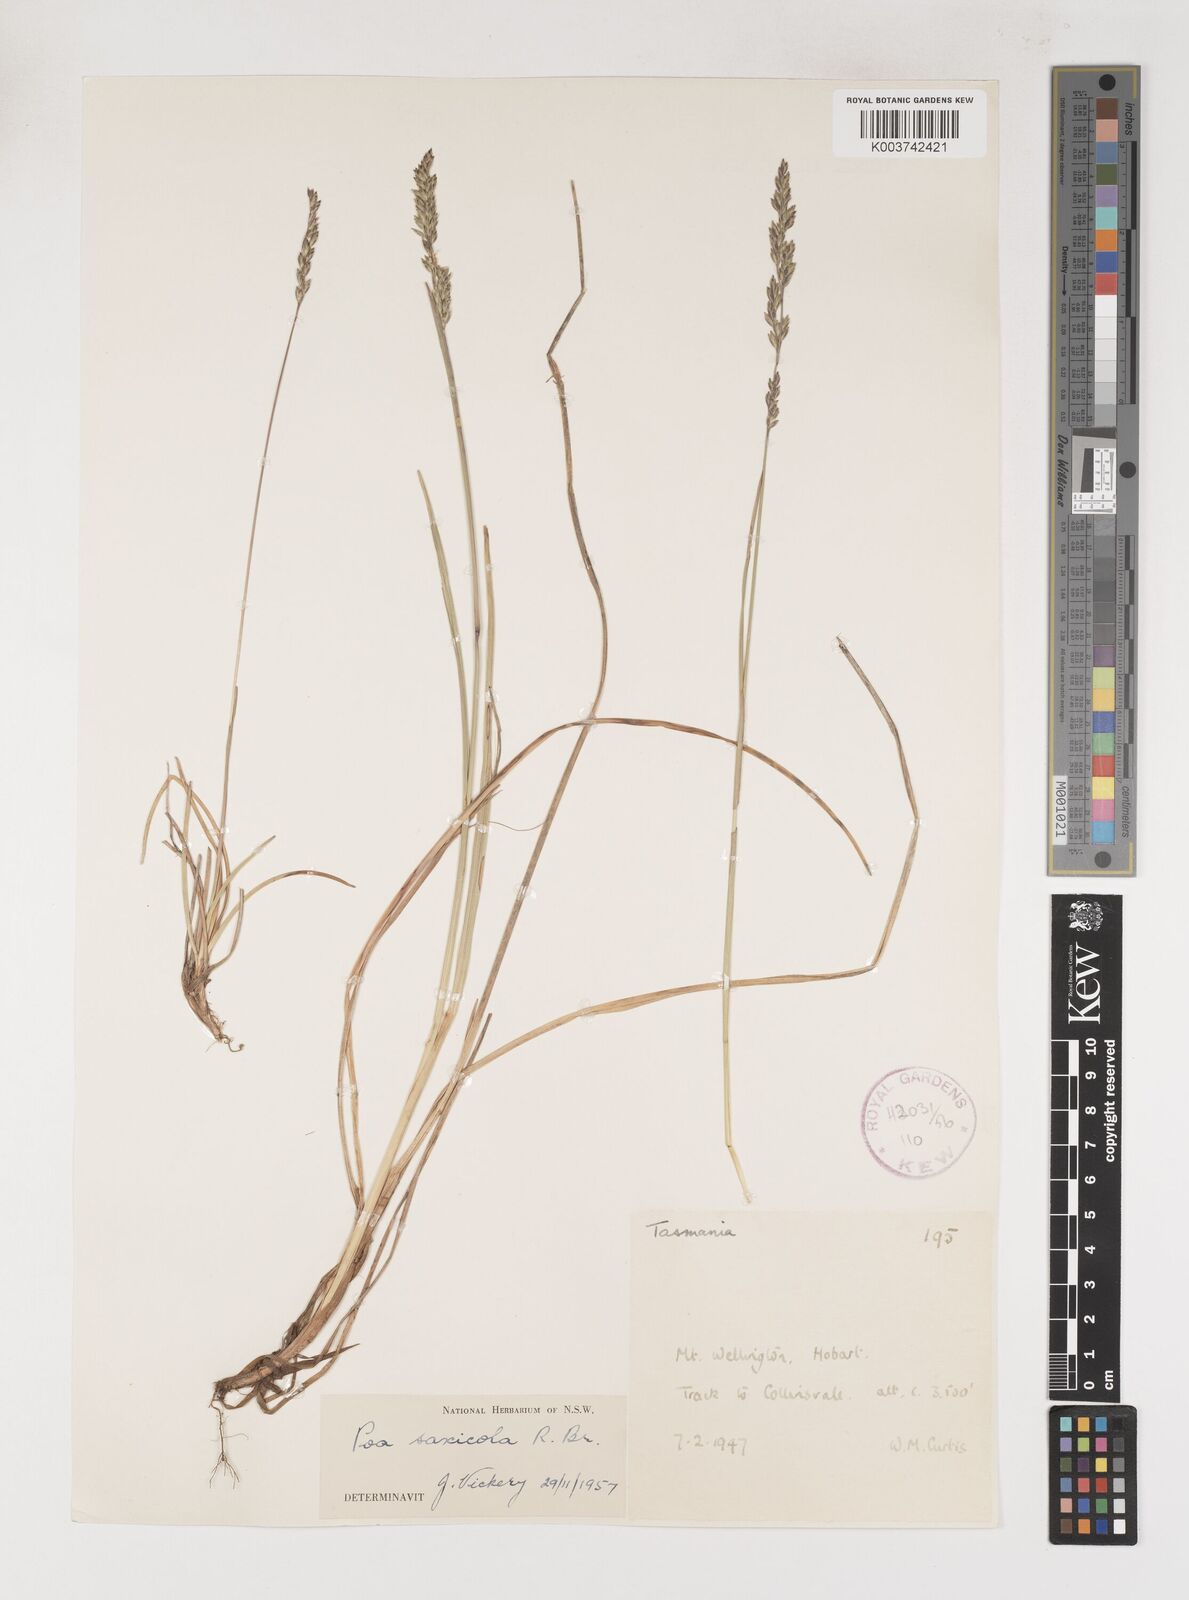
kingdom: Plantae
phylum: Tracheophyta
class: Liliopsida
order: Poales
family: Poaceae
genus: Saxipoa
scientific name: Saxipoa saxicola
